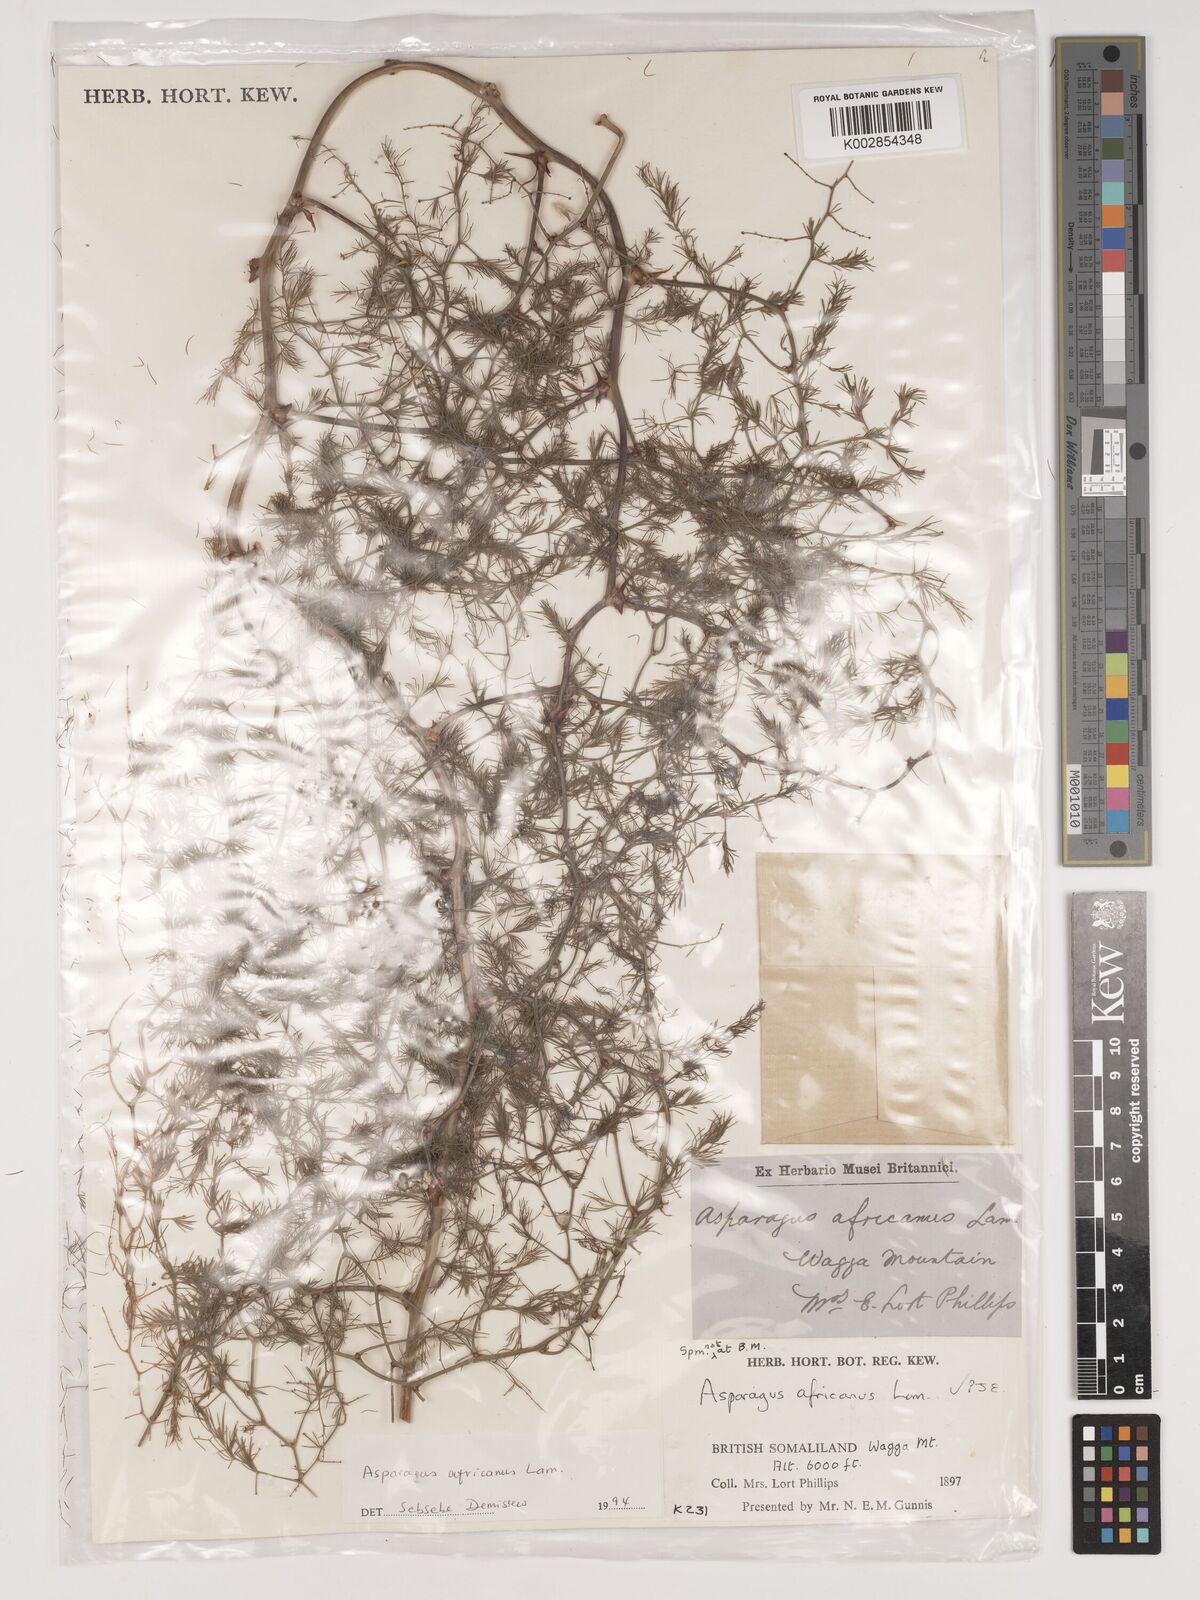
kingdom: Plantae
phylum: Tracheophyta
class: Liliopsida
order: Asparagales
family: Asparagaceae
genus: Asparagus
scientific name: Asparagus africanus
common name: Asparagus-fern
